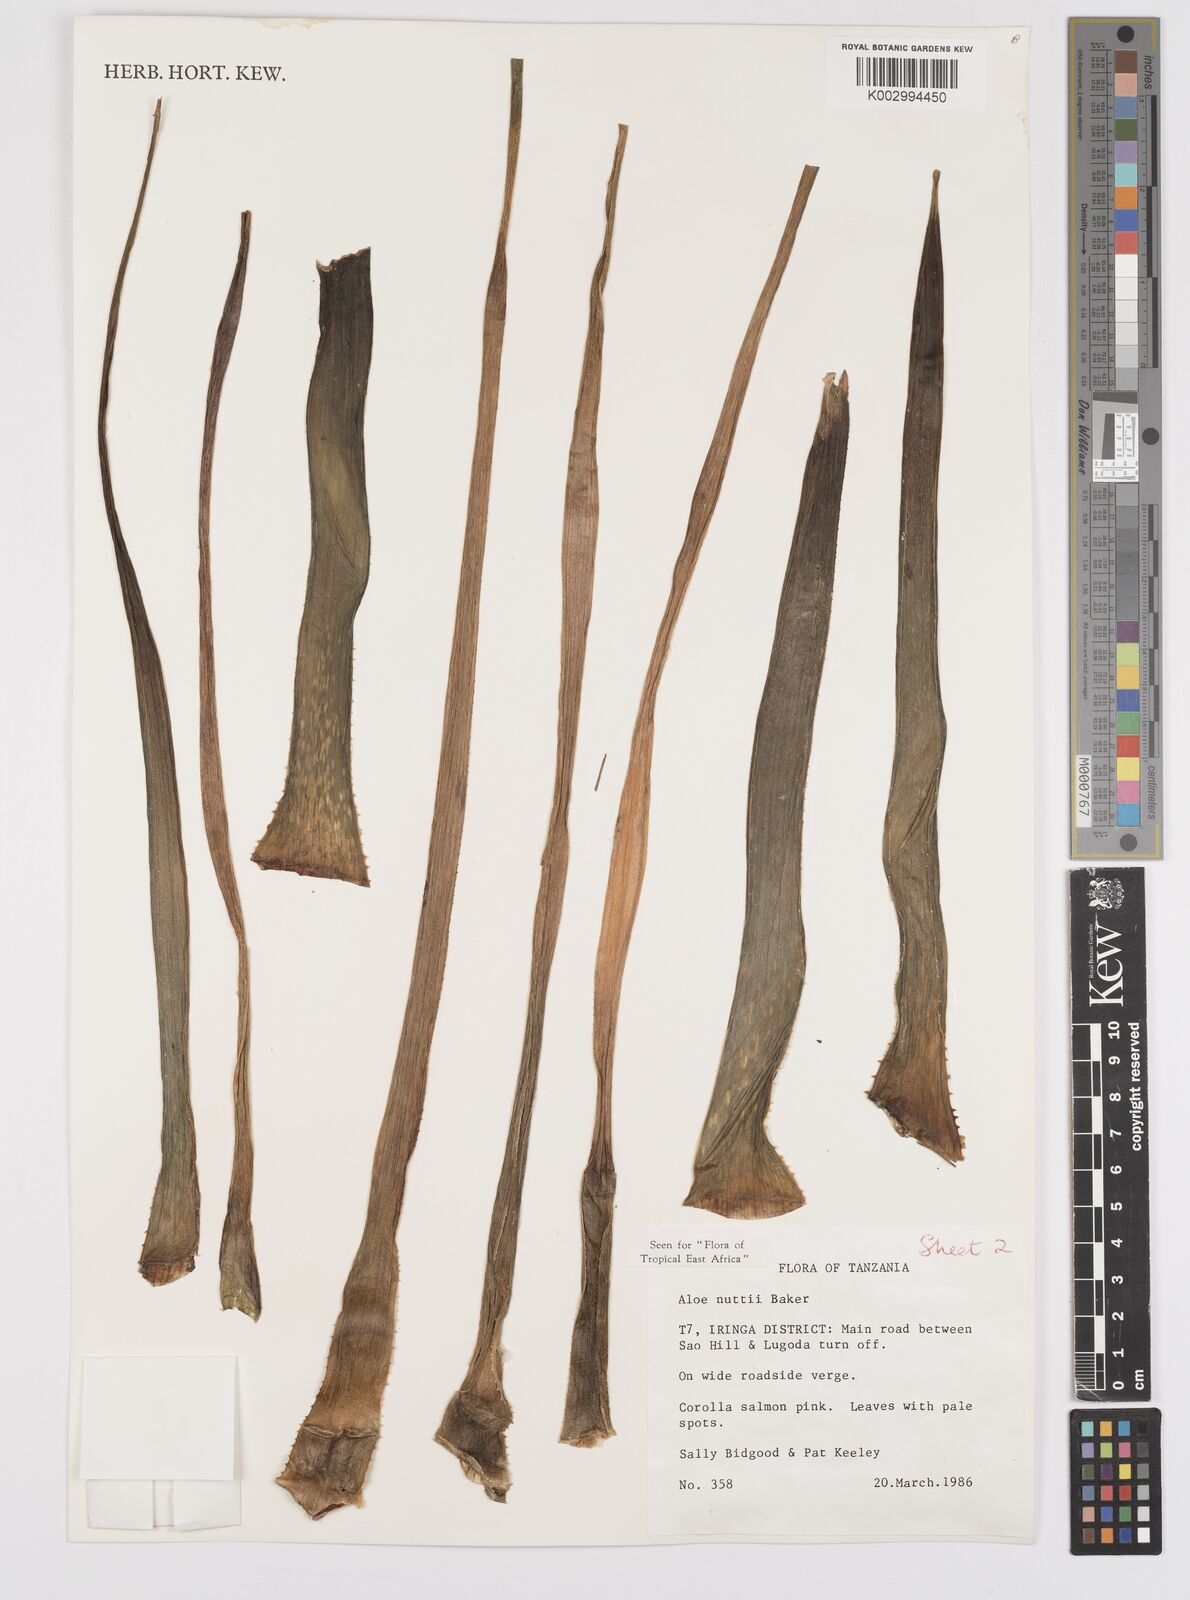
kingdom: Plantae
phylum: Tracheophyta
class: Liliopsida
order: Asparagales
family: Asphodelaceae
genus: Aloe
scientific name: Aloe nuttii
